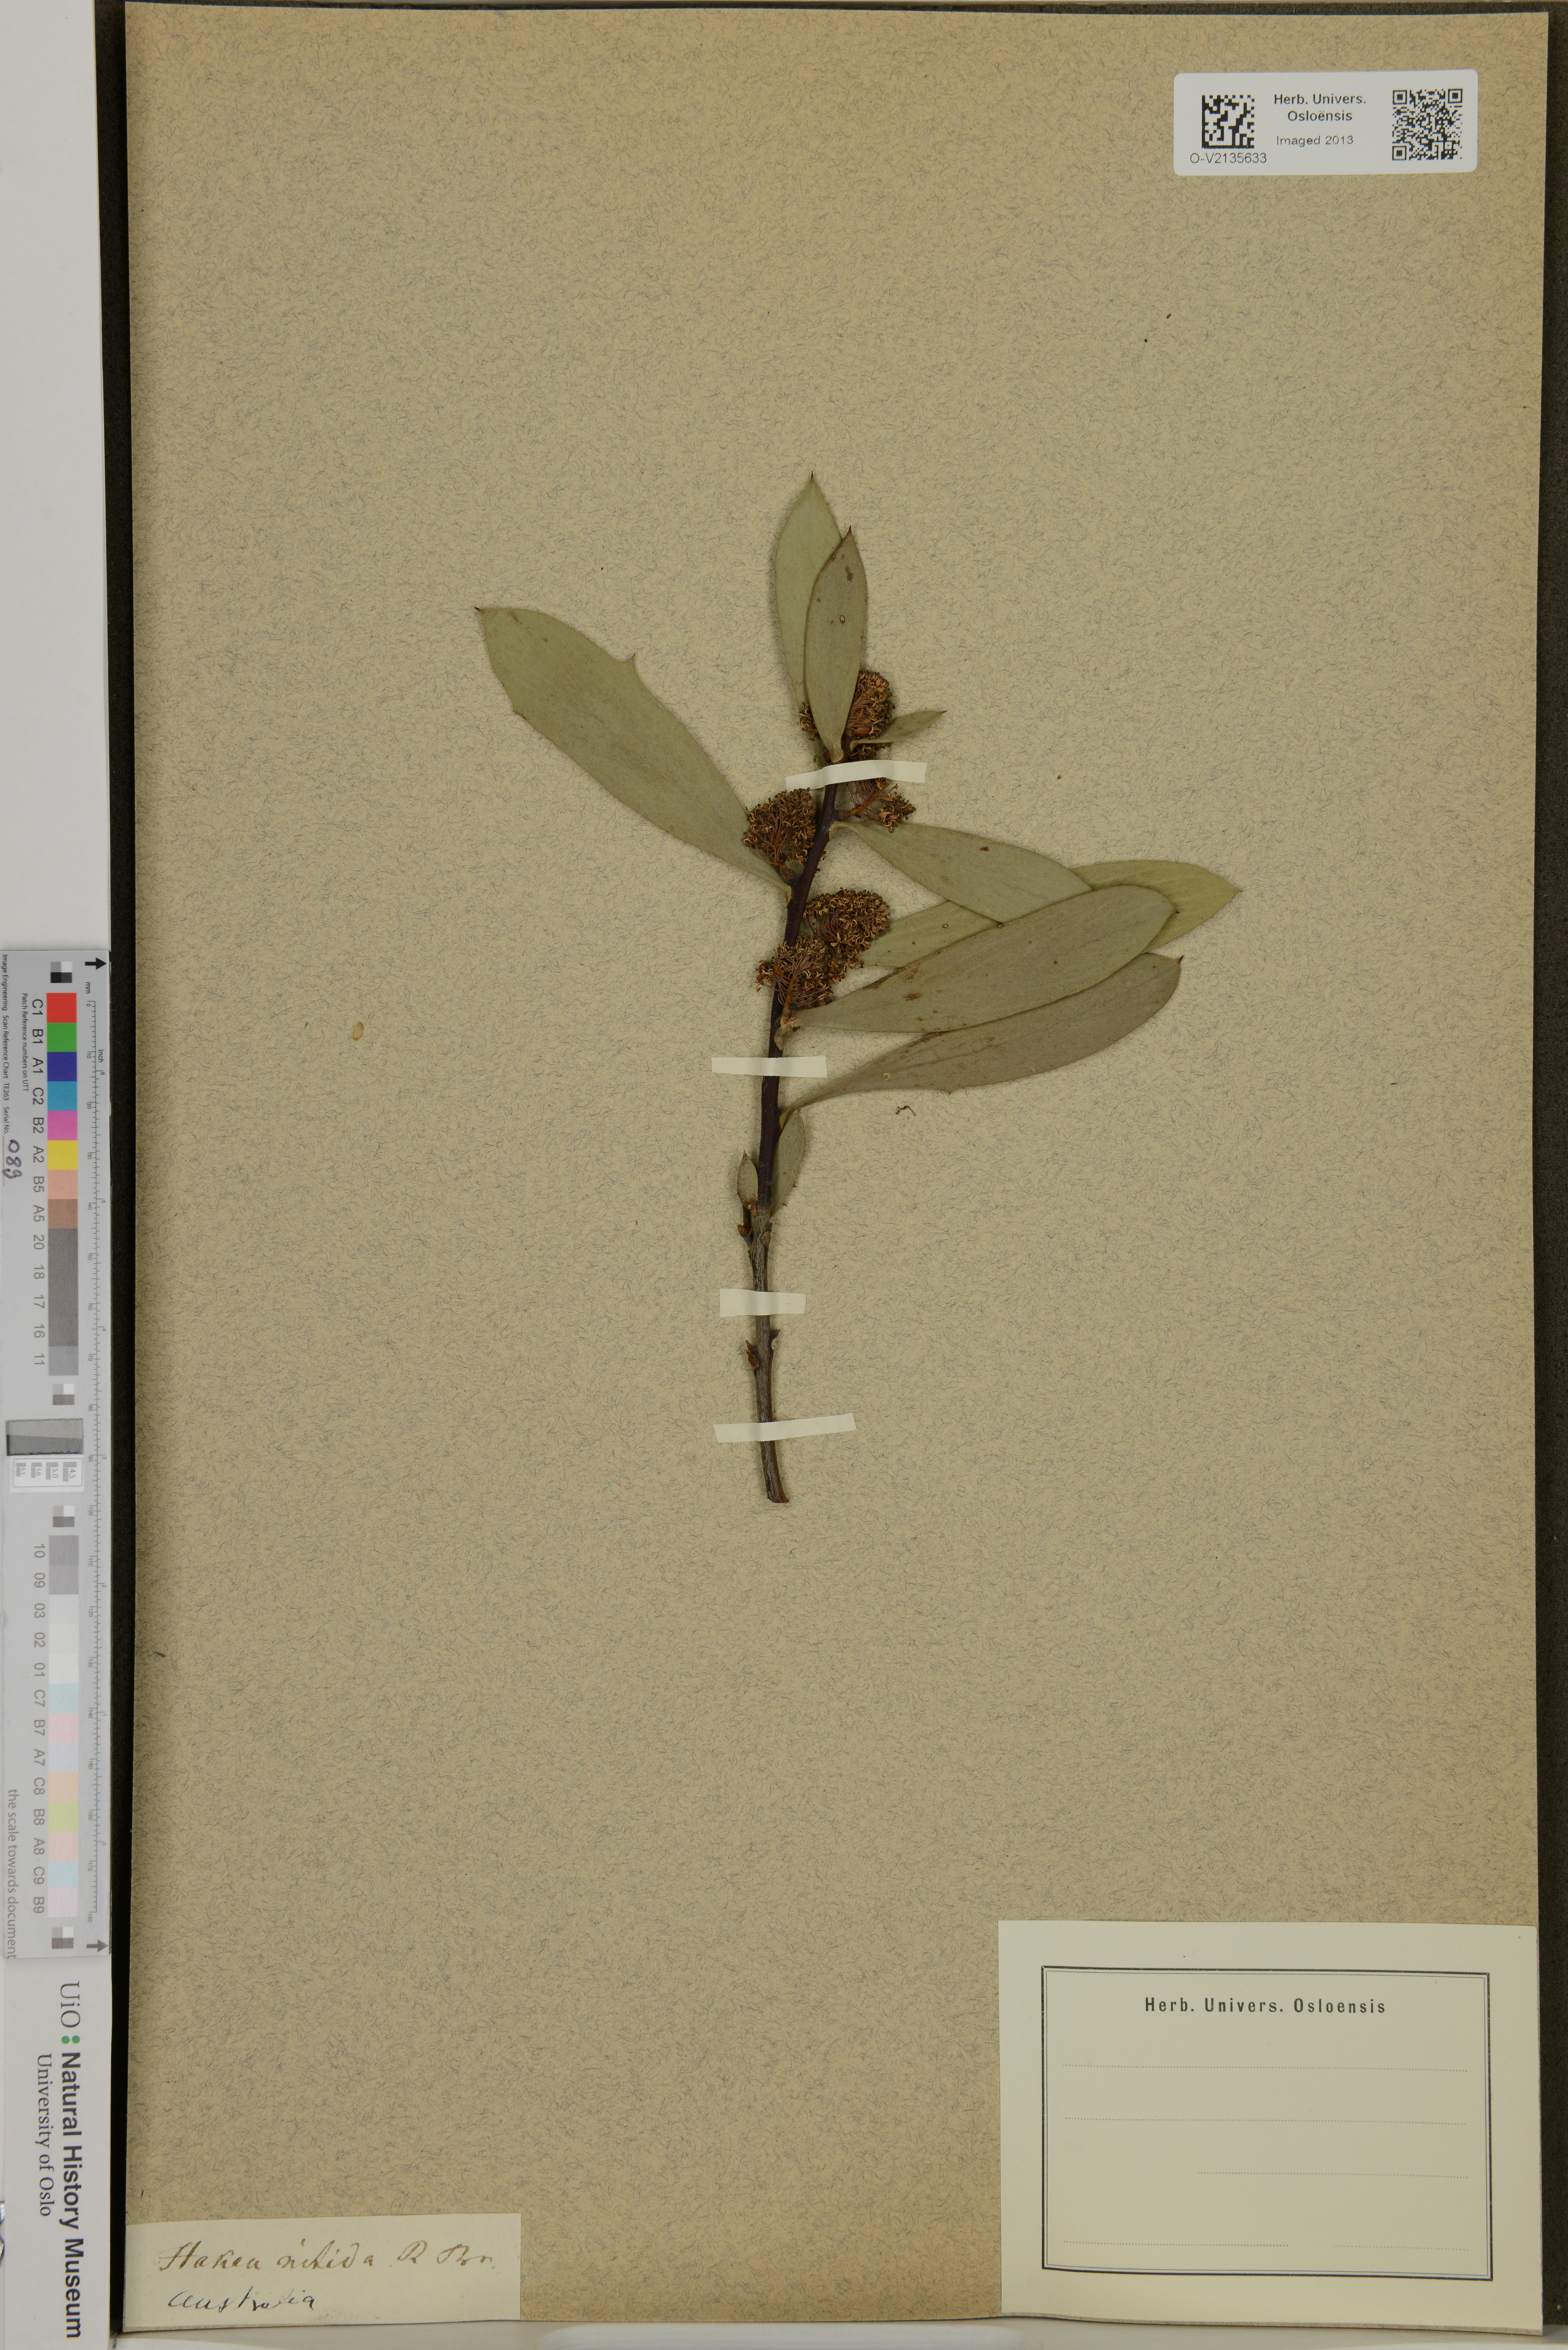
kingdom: Plantae
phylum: Tracheophyta
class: Magnoliopsida
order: Proteales
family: Proteaceae
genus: Hakea
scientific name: Hakea nitida
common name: Frog hakea
